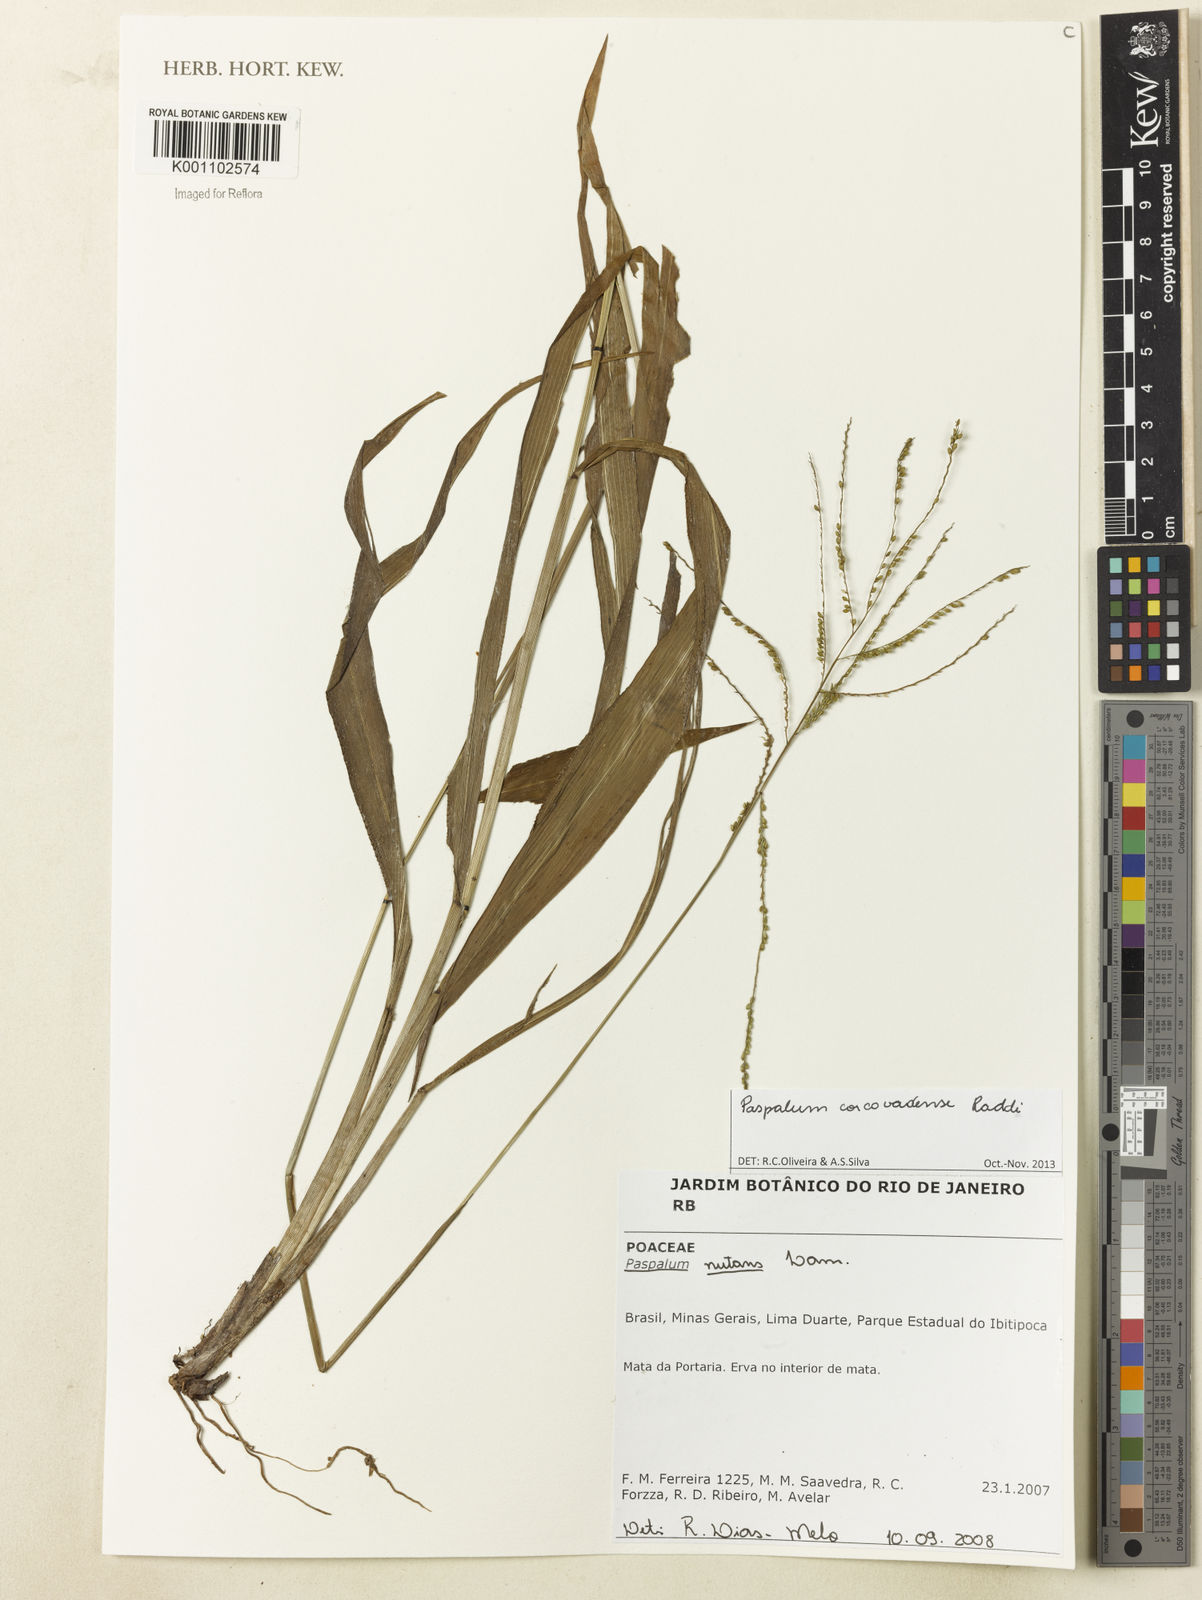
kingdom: Plantae
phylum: Tracheophyta
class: Liliopsida
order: Poales
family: Poaceae
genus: Paspalum
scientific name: Paspalum corcovadense
